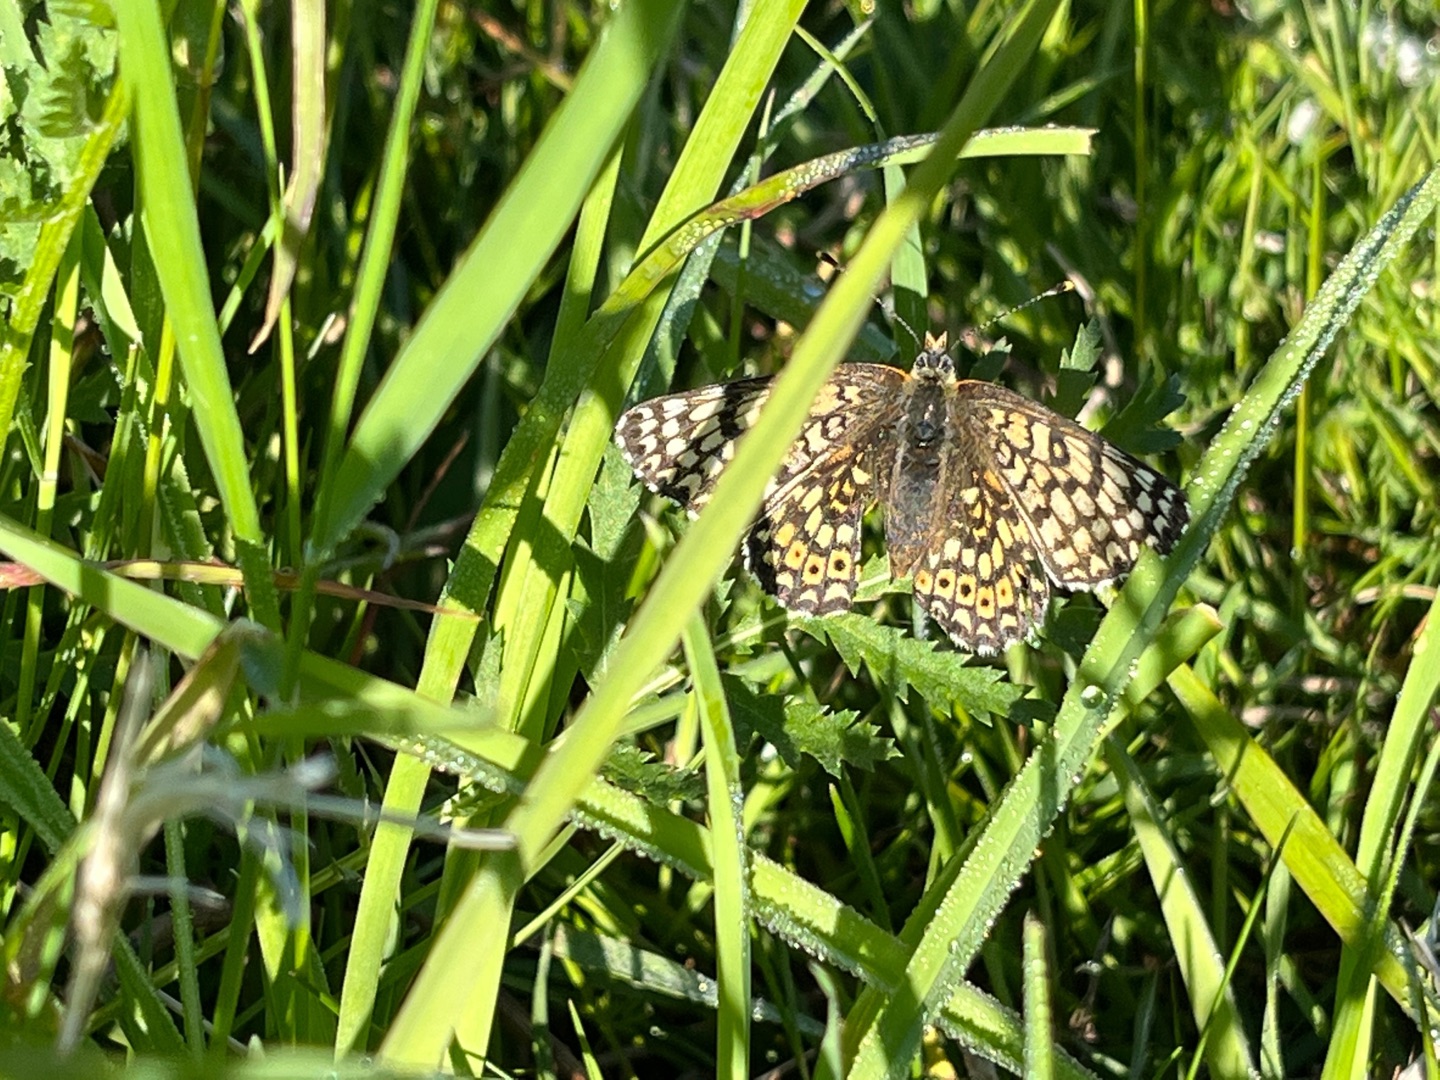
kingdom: Animalia
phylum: Arthropoda
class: Insecta
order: Lepidoptera
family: Nymphalidae
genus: Melitaea
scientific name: Melitaea cinxia
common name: Okkergul pletvinge
